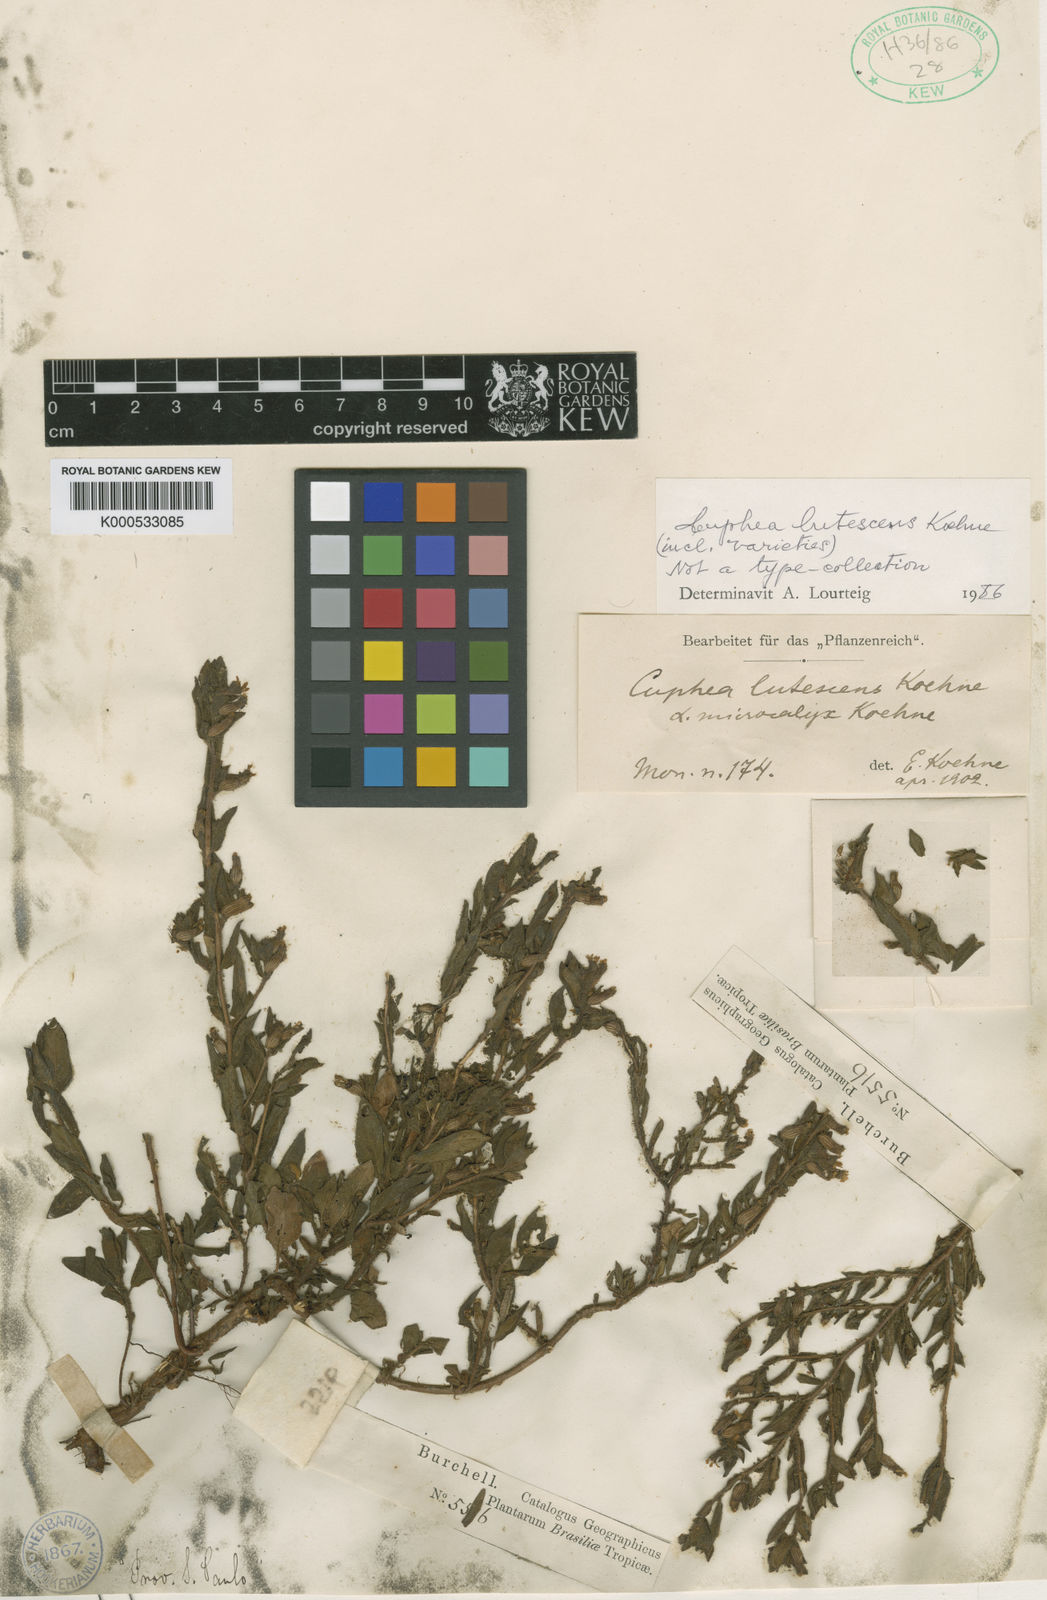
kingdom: Plantae
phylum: Tracheophyta
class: Magnoliopsida
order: Myrtales
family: Lythraceae
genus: Cuphea
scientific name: Cuphea lutescens
